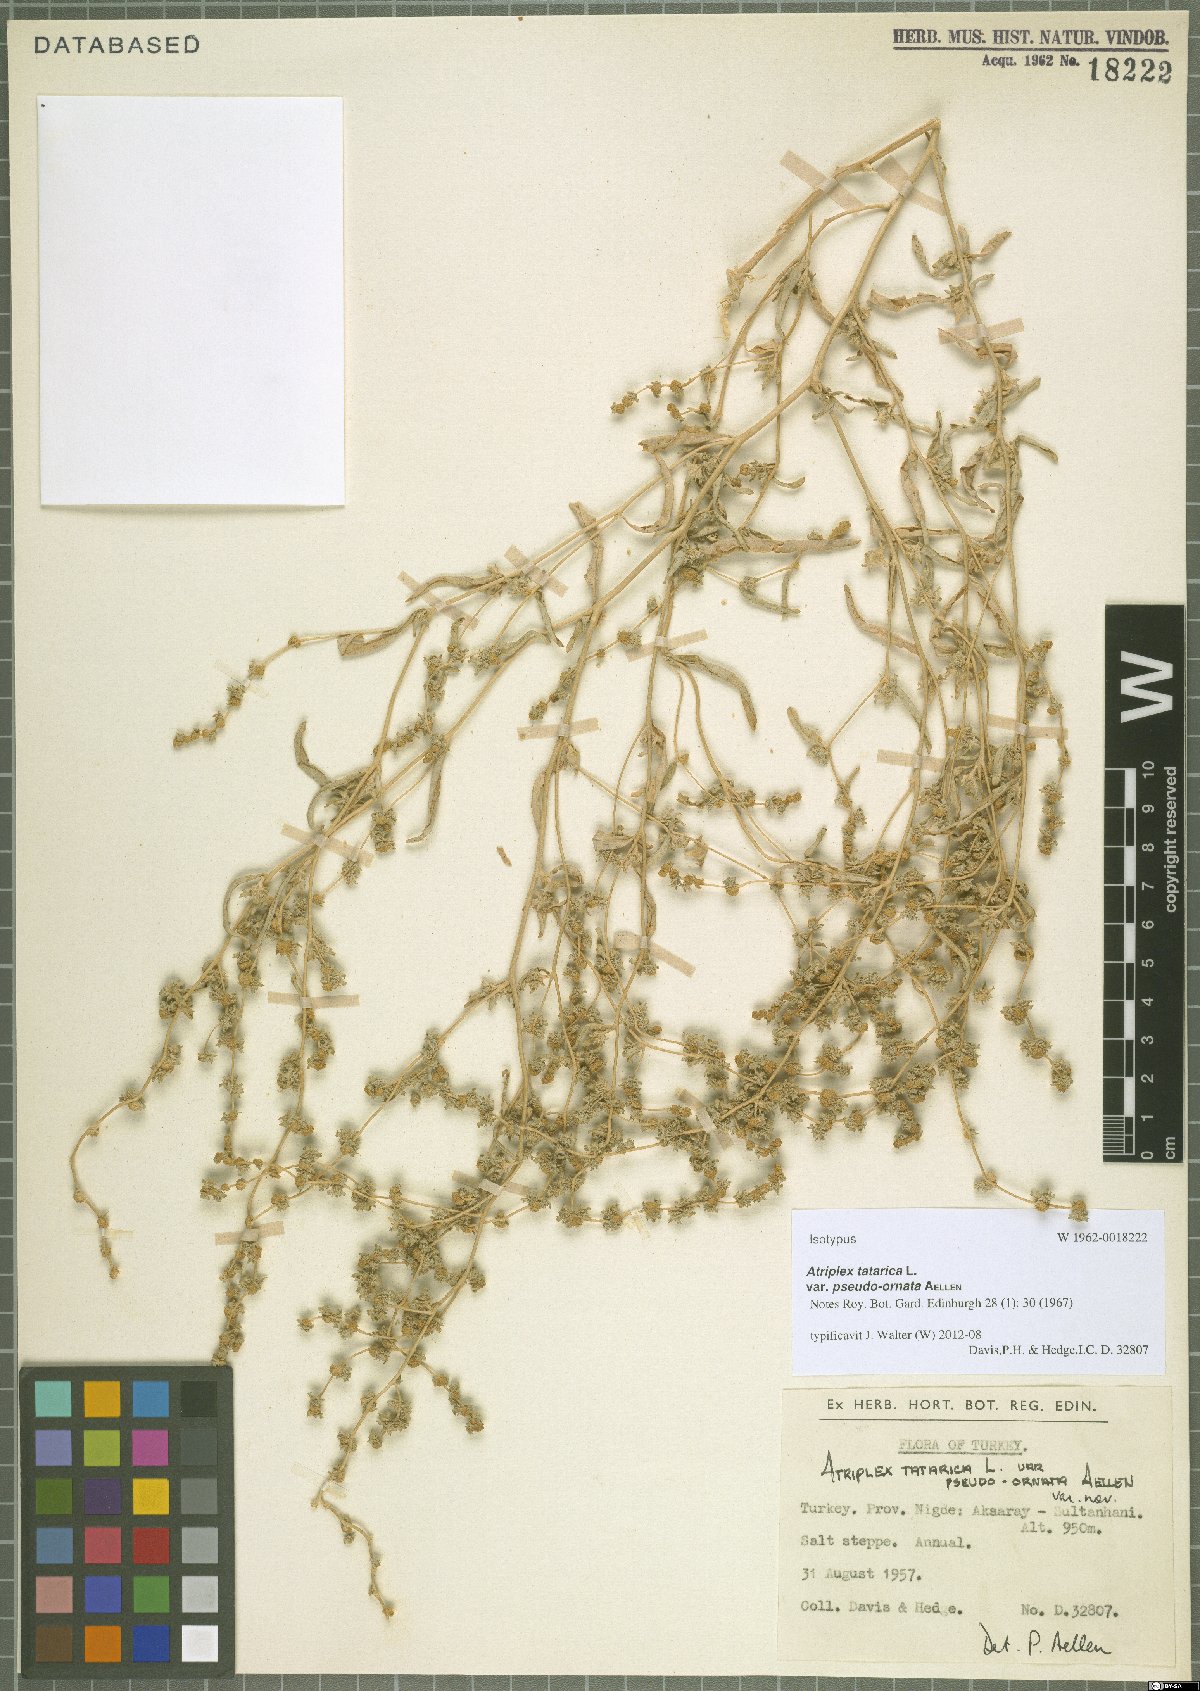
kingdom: Plantae
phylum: Tracheophyta
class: Magnoliopsida
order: Caryophyllales
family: Amaranthaceae
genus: Atriplex
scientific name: Atriplex tatarica
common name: Tatarian orache
